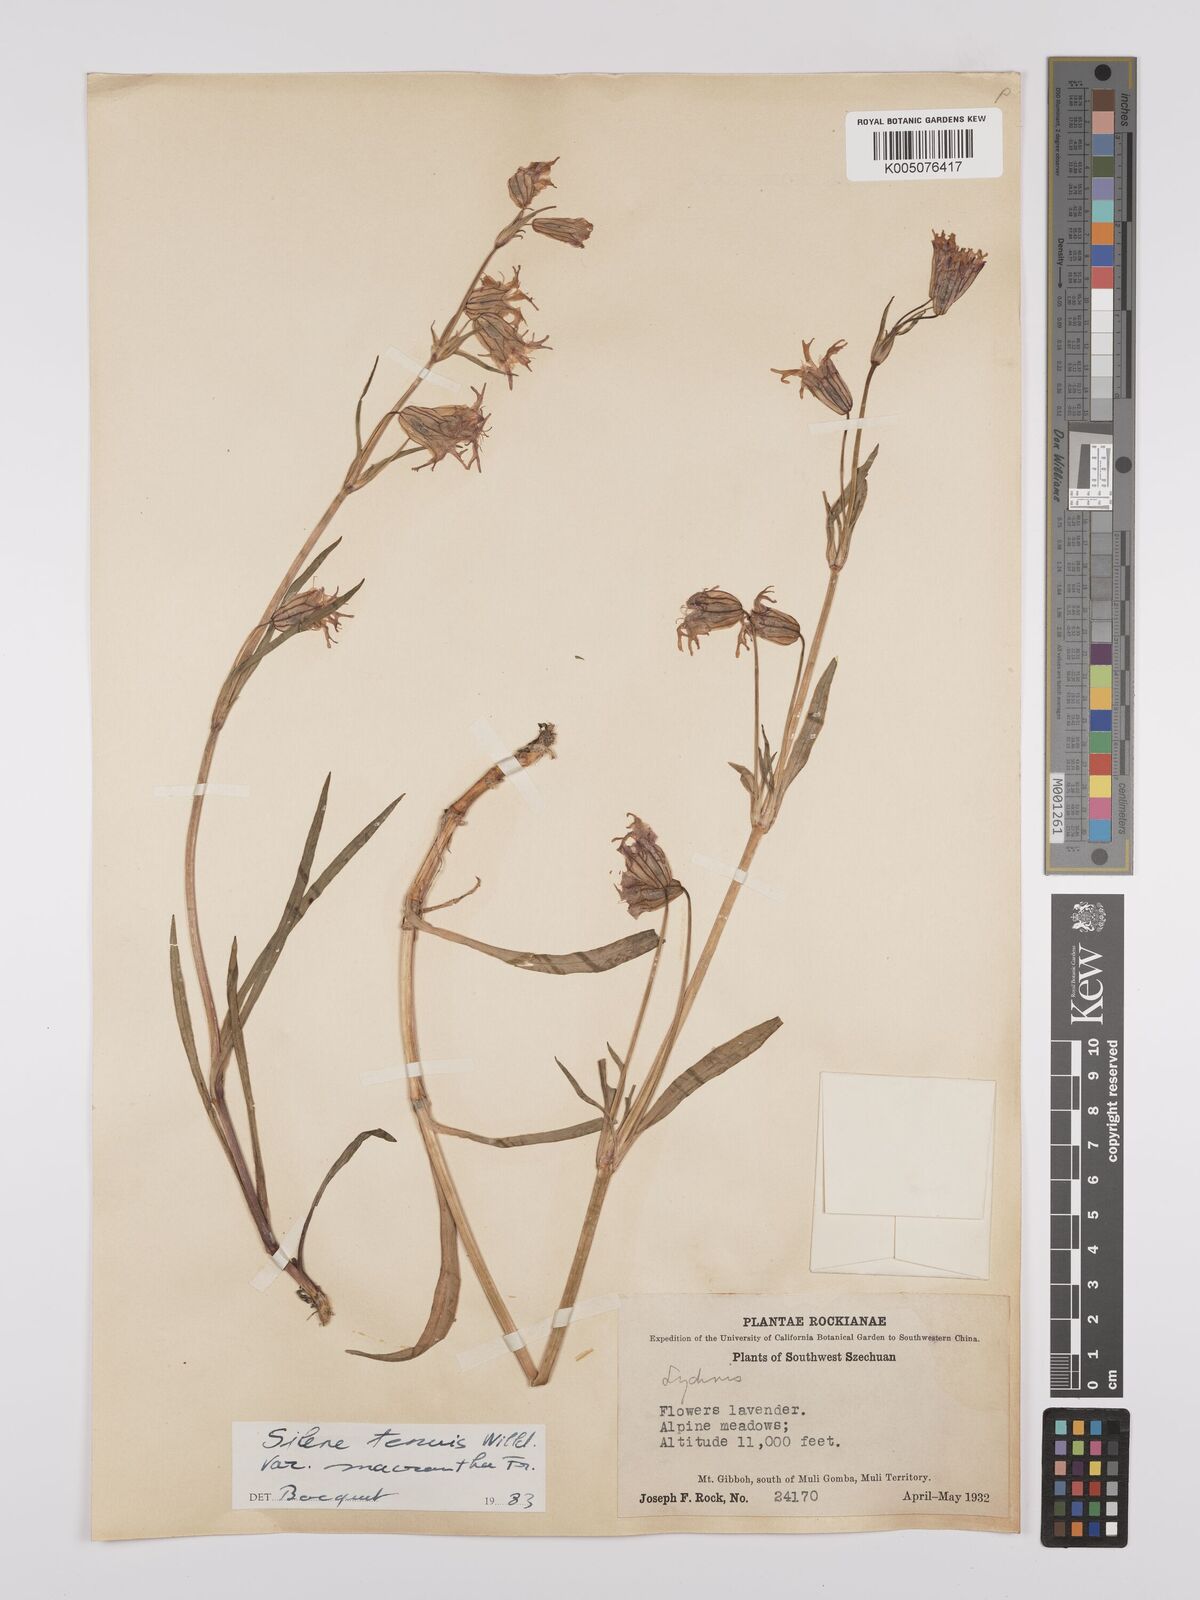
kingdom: Plantae
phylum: Tracheophyta
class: Magnoliopsida
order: Caryophyllales
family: Caryophyllaceae
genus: Silene
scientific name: Silene
